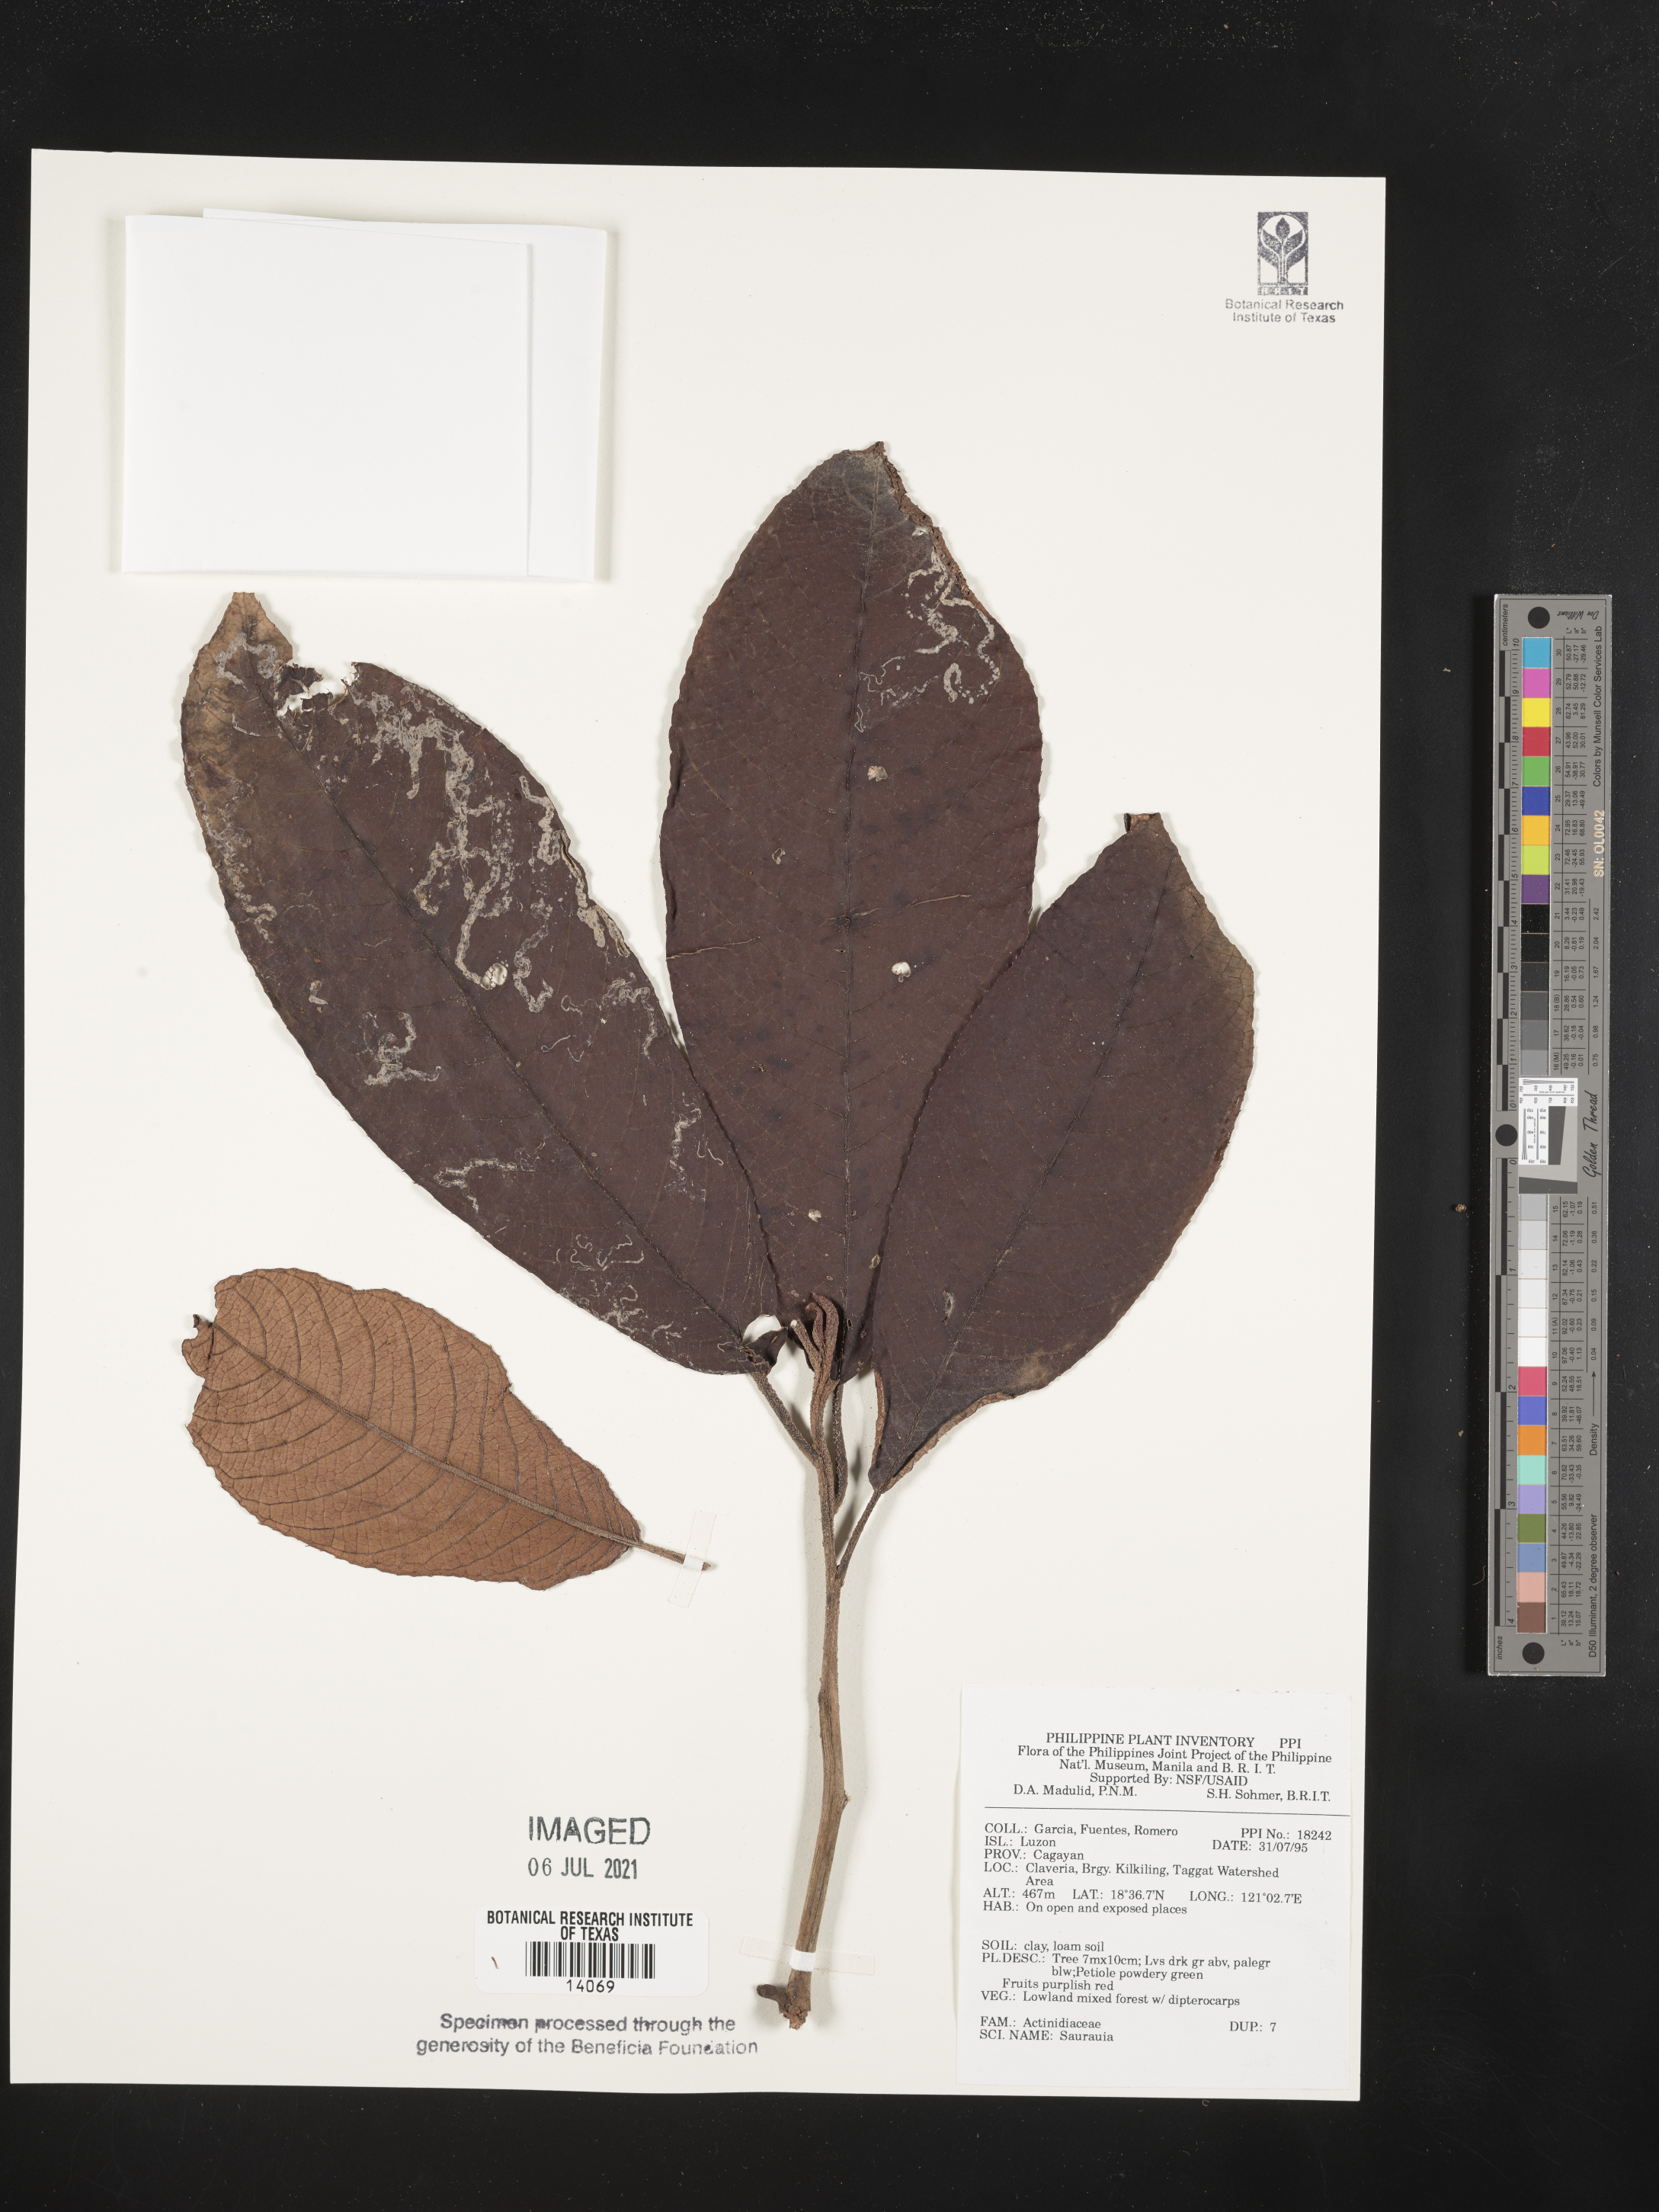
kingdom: Plantae
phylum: Tracheophyta
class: Magnoliopsida
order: Ericales
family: Actinidiaceae
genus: Saurauia
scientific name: Saurauia
